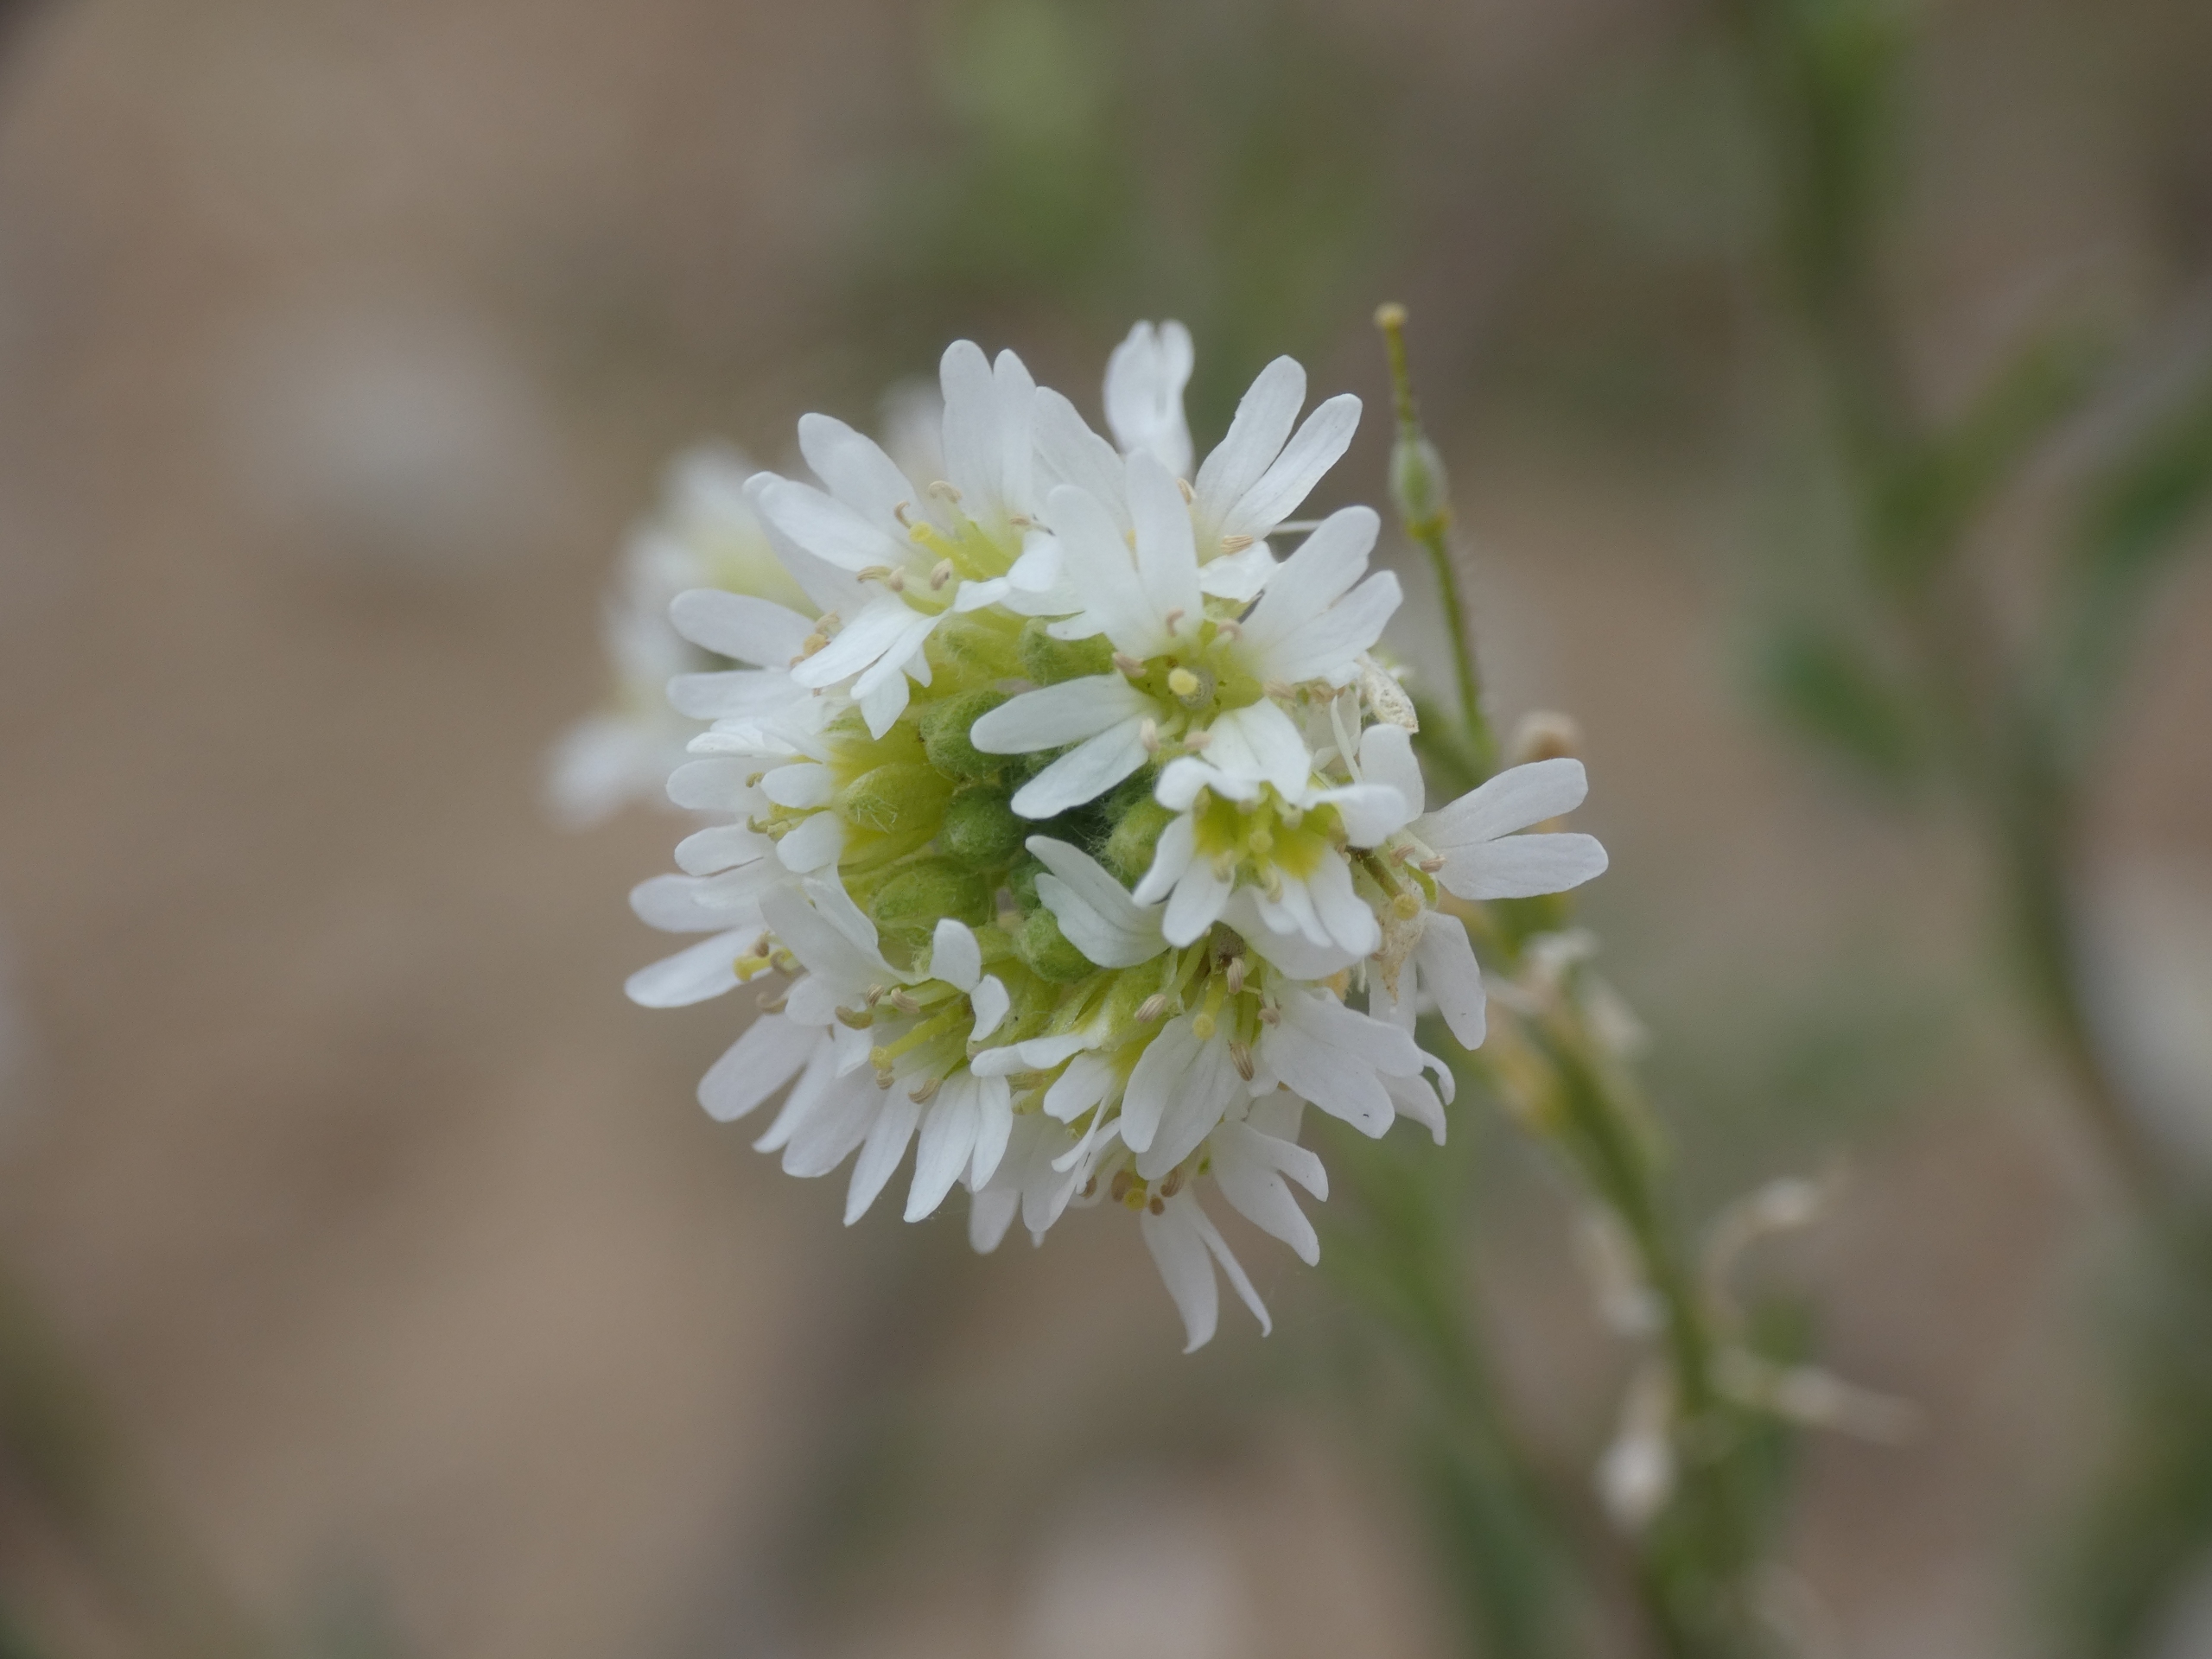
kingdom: Plantae
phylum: Tracheophyta
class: Magnoliopsida
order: Brassicales
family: Brassicaceae
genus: Berteroa
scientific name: Berteroa incana
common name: Kløvplade
